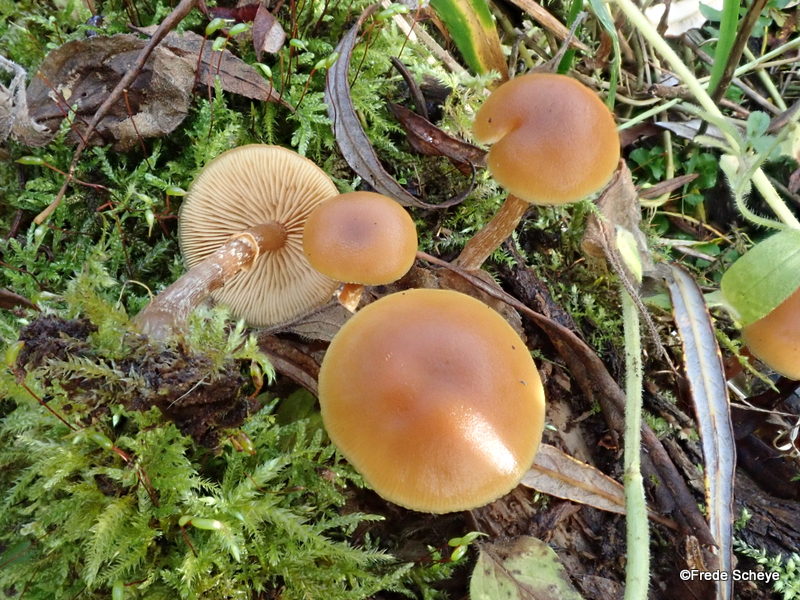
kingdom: Fungi
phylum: Basidiomycota
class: Agaricomycetes
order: Agaricales
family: Hymenogastraceae
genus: Galerina
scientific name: Galerina marginata
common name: randbæltet hjelmhat
